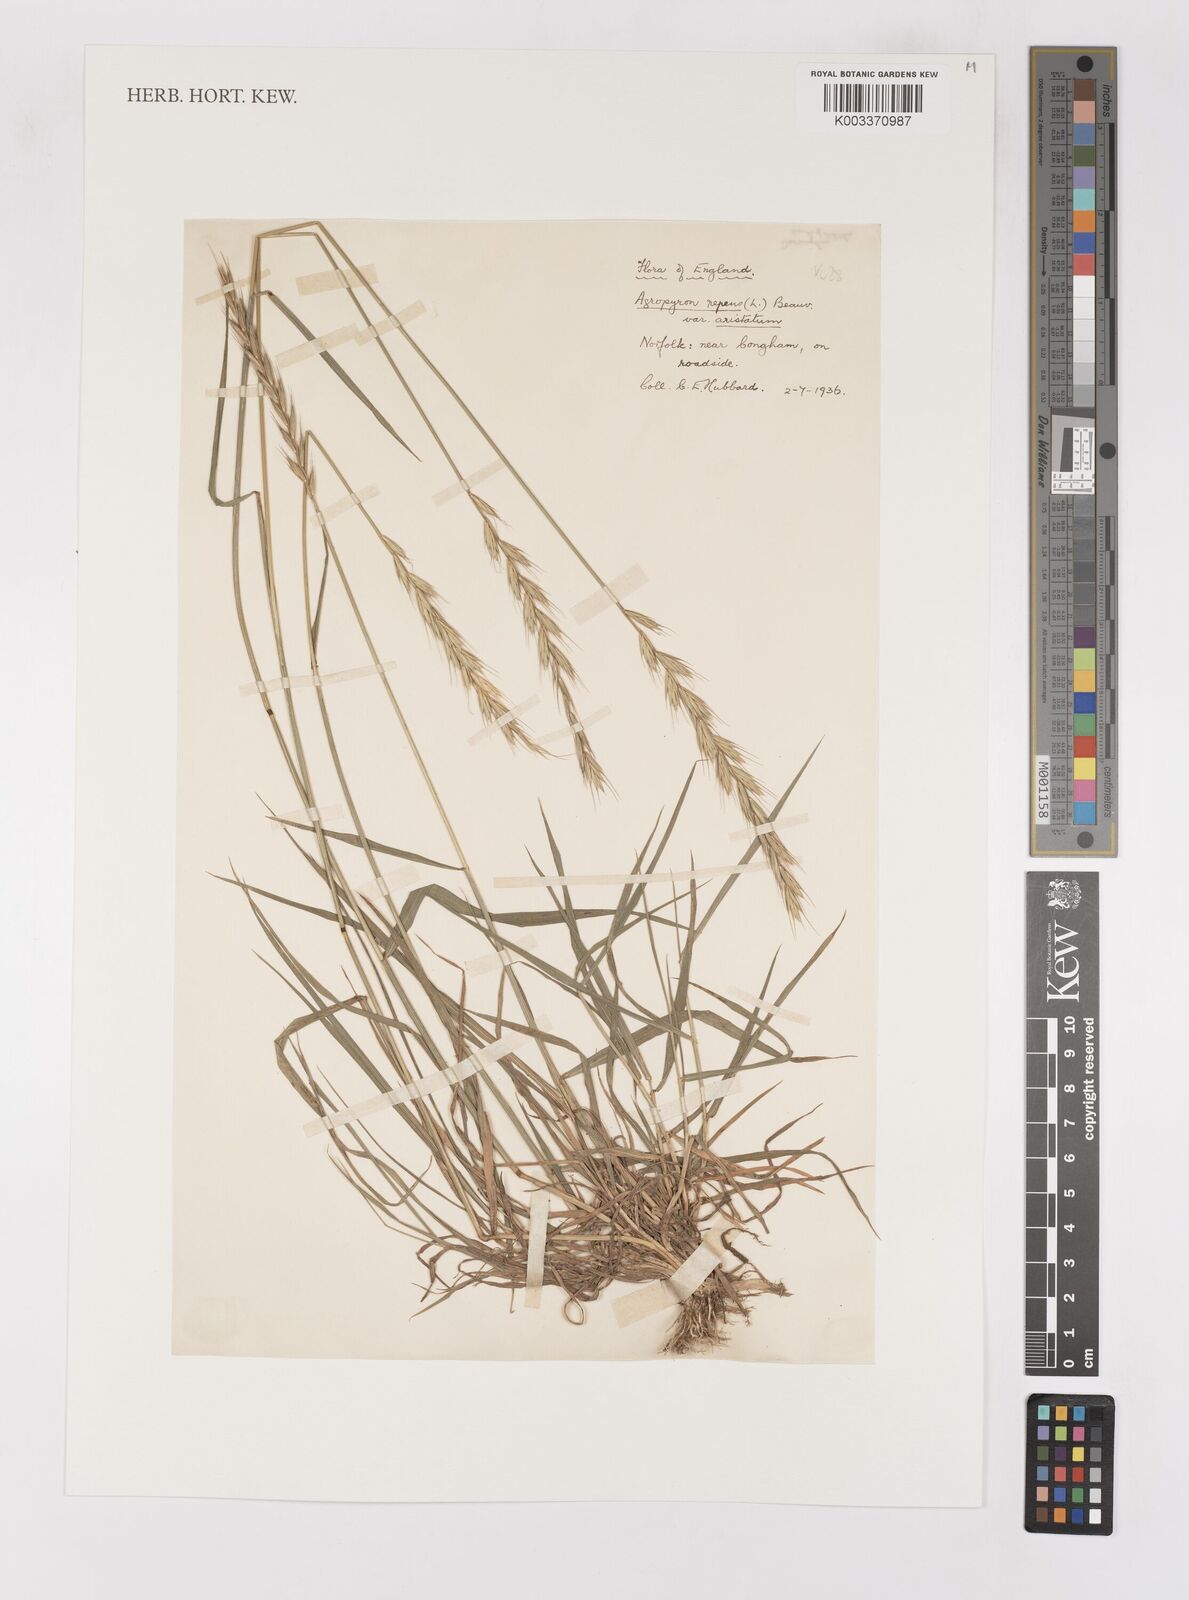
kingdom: Plantae
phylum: Tracheophyta
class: Liliopsida
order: Poales
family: Poaceae
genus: Elymus
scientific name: Elymus repens
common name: Quackgrass
